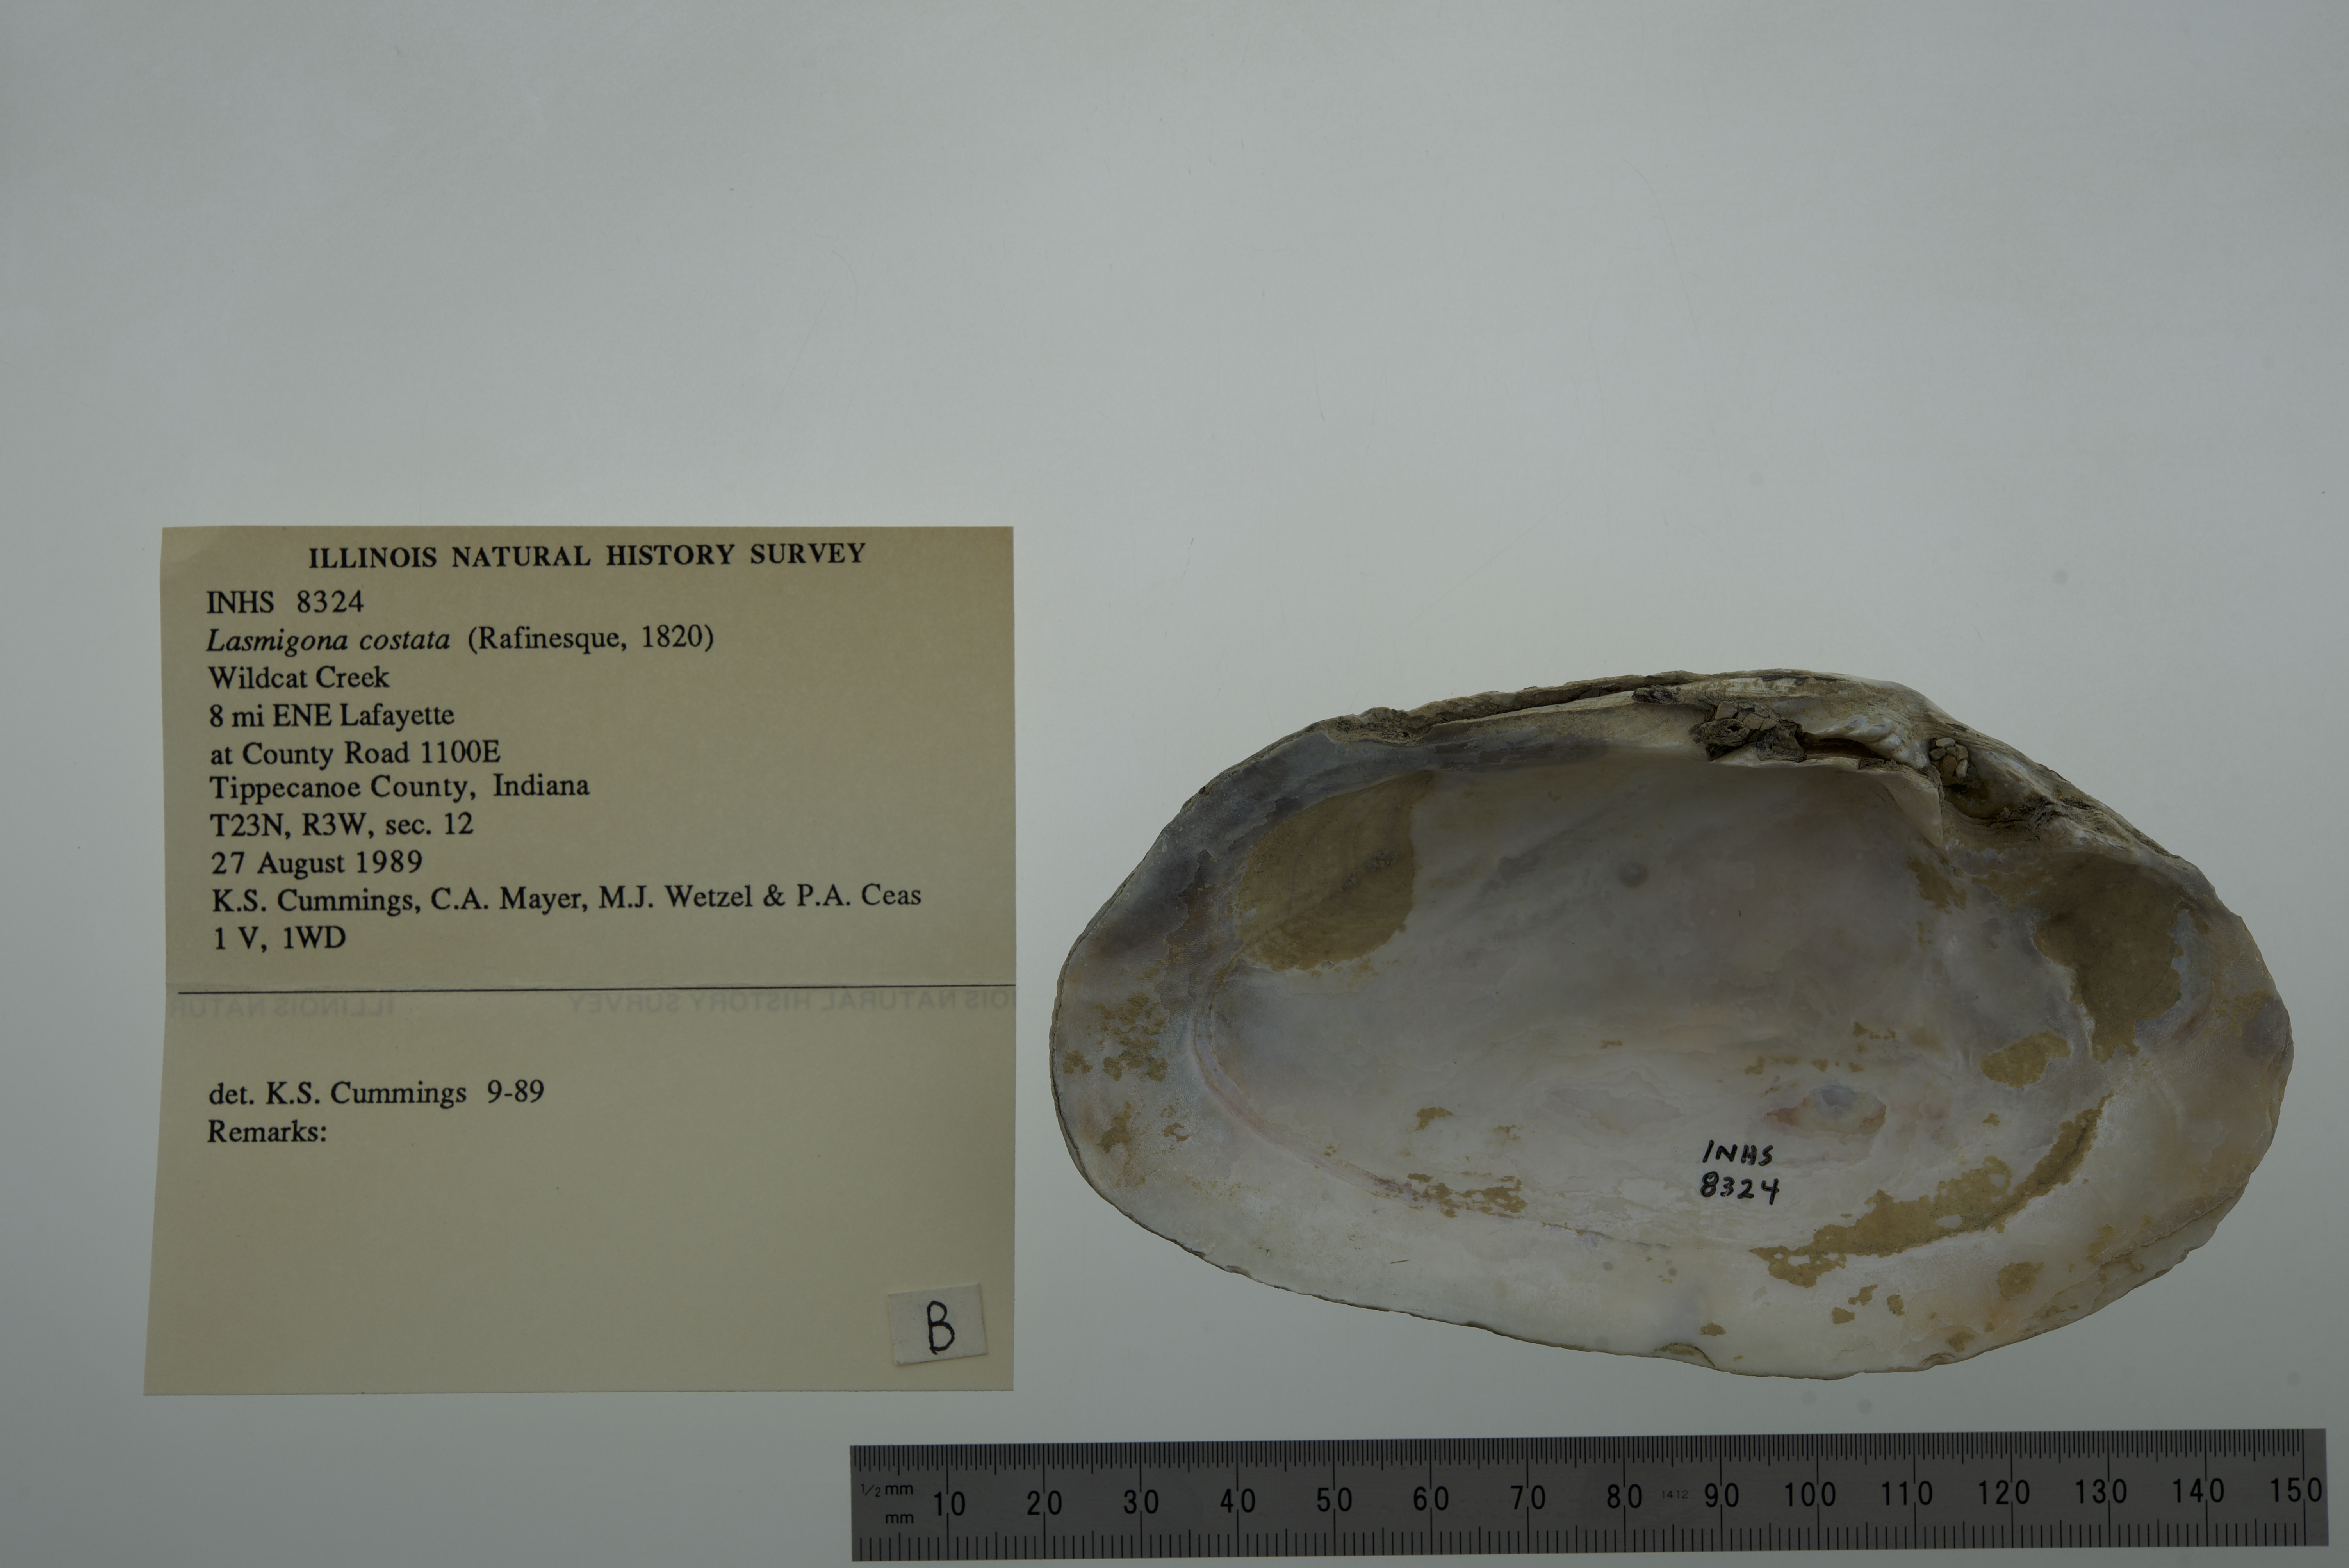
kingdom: Animalia
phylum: Mollusca
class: Bivalvia
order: Unionida
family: Unionidae
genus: Lasmigona
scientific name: Lasmigona costata
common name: Flutedshell
